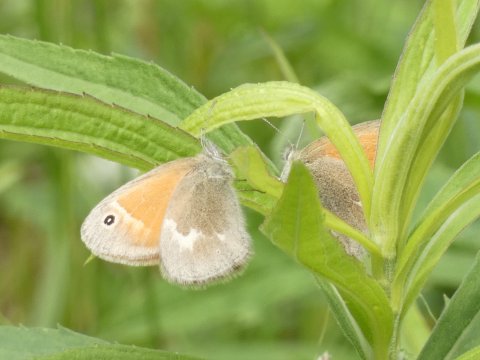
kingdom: Animalia
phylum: Arthropoda
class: Insecta
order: Lepidoptera
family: Nymphalidae
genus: Coenonympha
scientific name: Coenonympha tullia
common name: Large Heath
